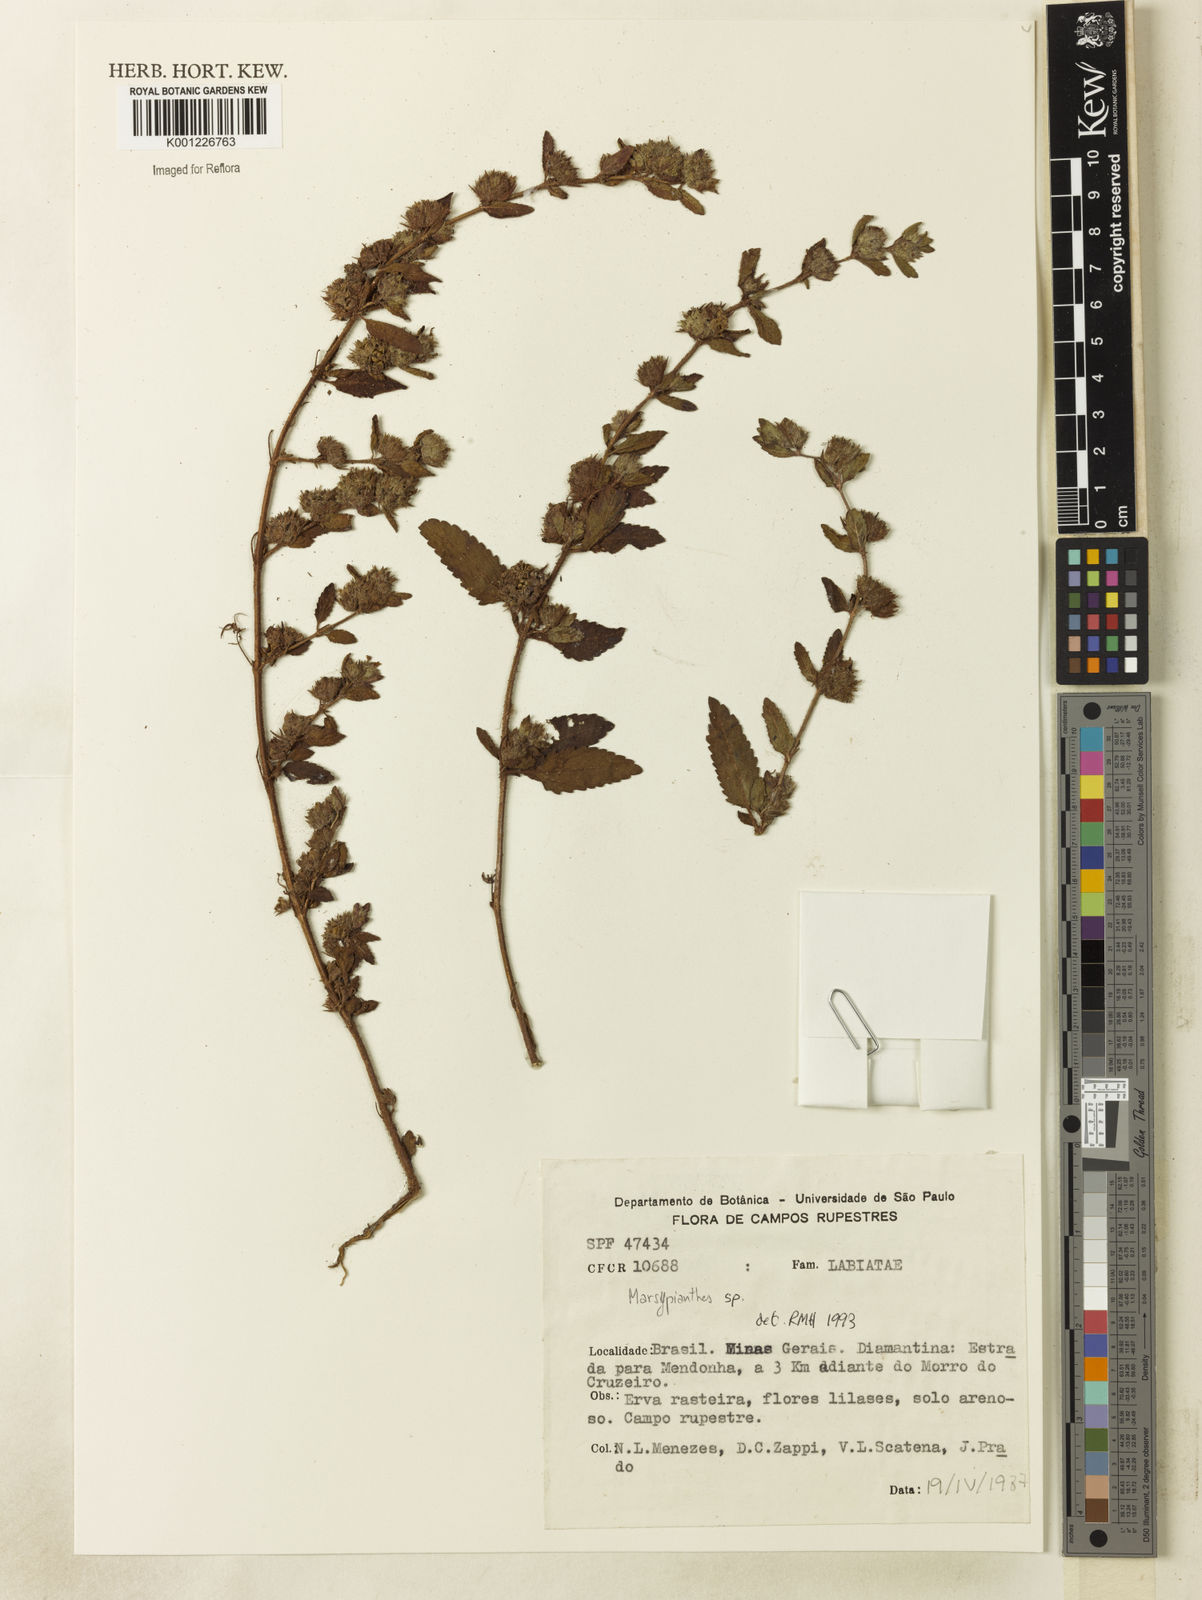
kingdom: Plantae
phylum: Tracheophyta
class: Magnoliopsida
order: Lamiales
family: Lamiaceae
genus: Marsypianthes
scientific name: Marsypianthes
